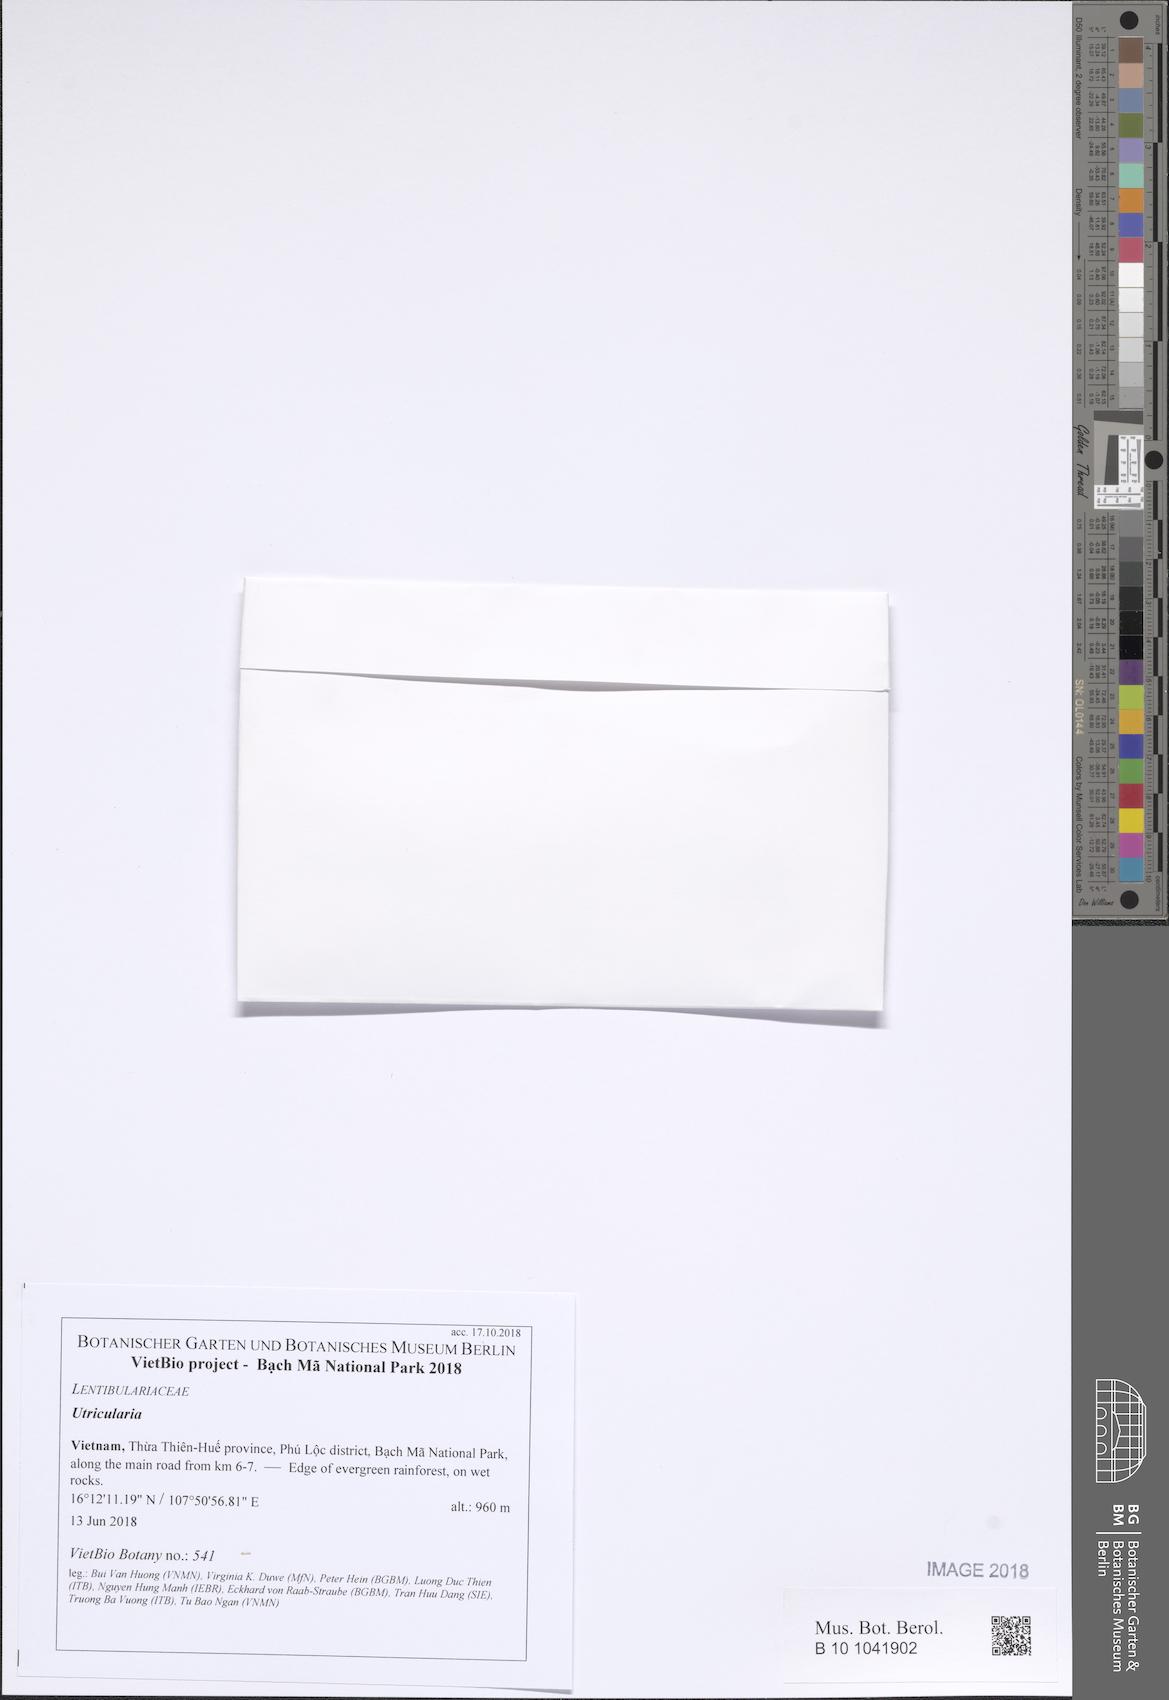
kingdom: Plantae
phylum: Tracheophyta
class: Magnoliopsida
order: Lamiales
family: Lentibulariaceae
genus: Utricularia
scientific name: Utricularia
